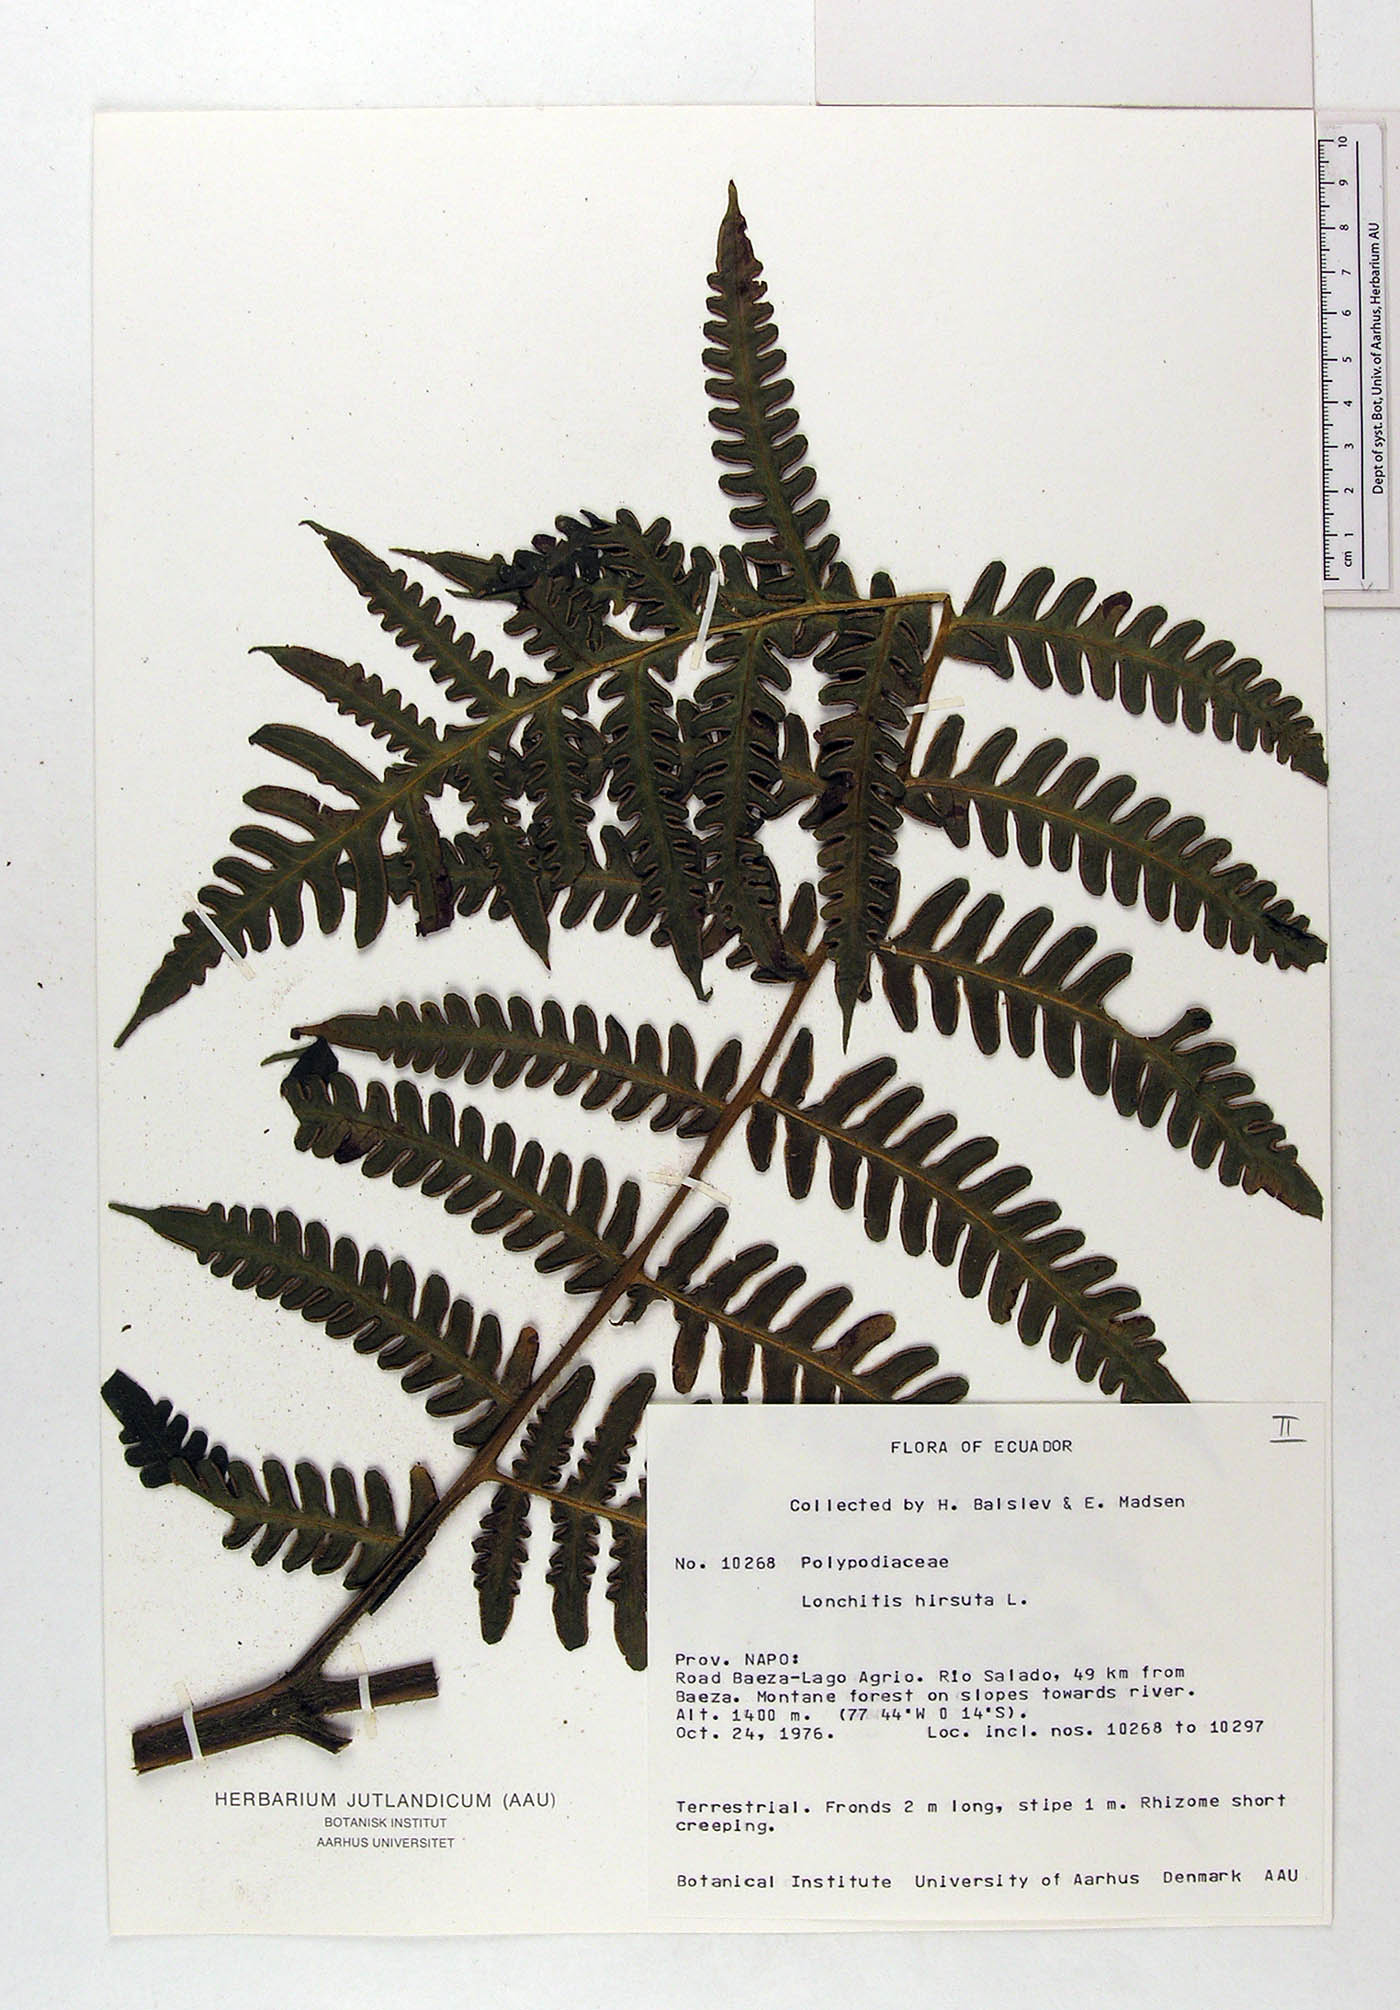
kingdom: Plantae
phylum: Tracheophyta
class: Polypodiopsida
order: Polypodiales
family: Lonchitidaceae
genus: Lonchitis
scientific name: Lonchitis hirsuta
